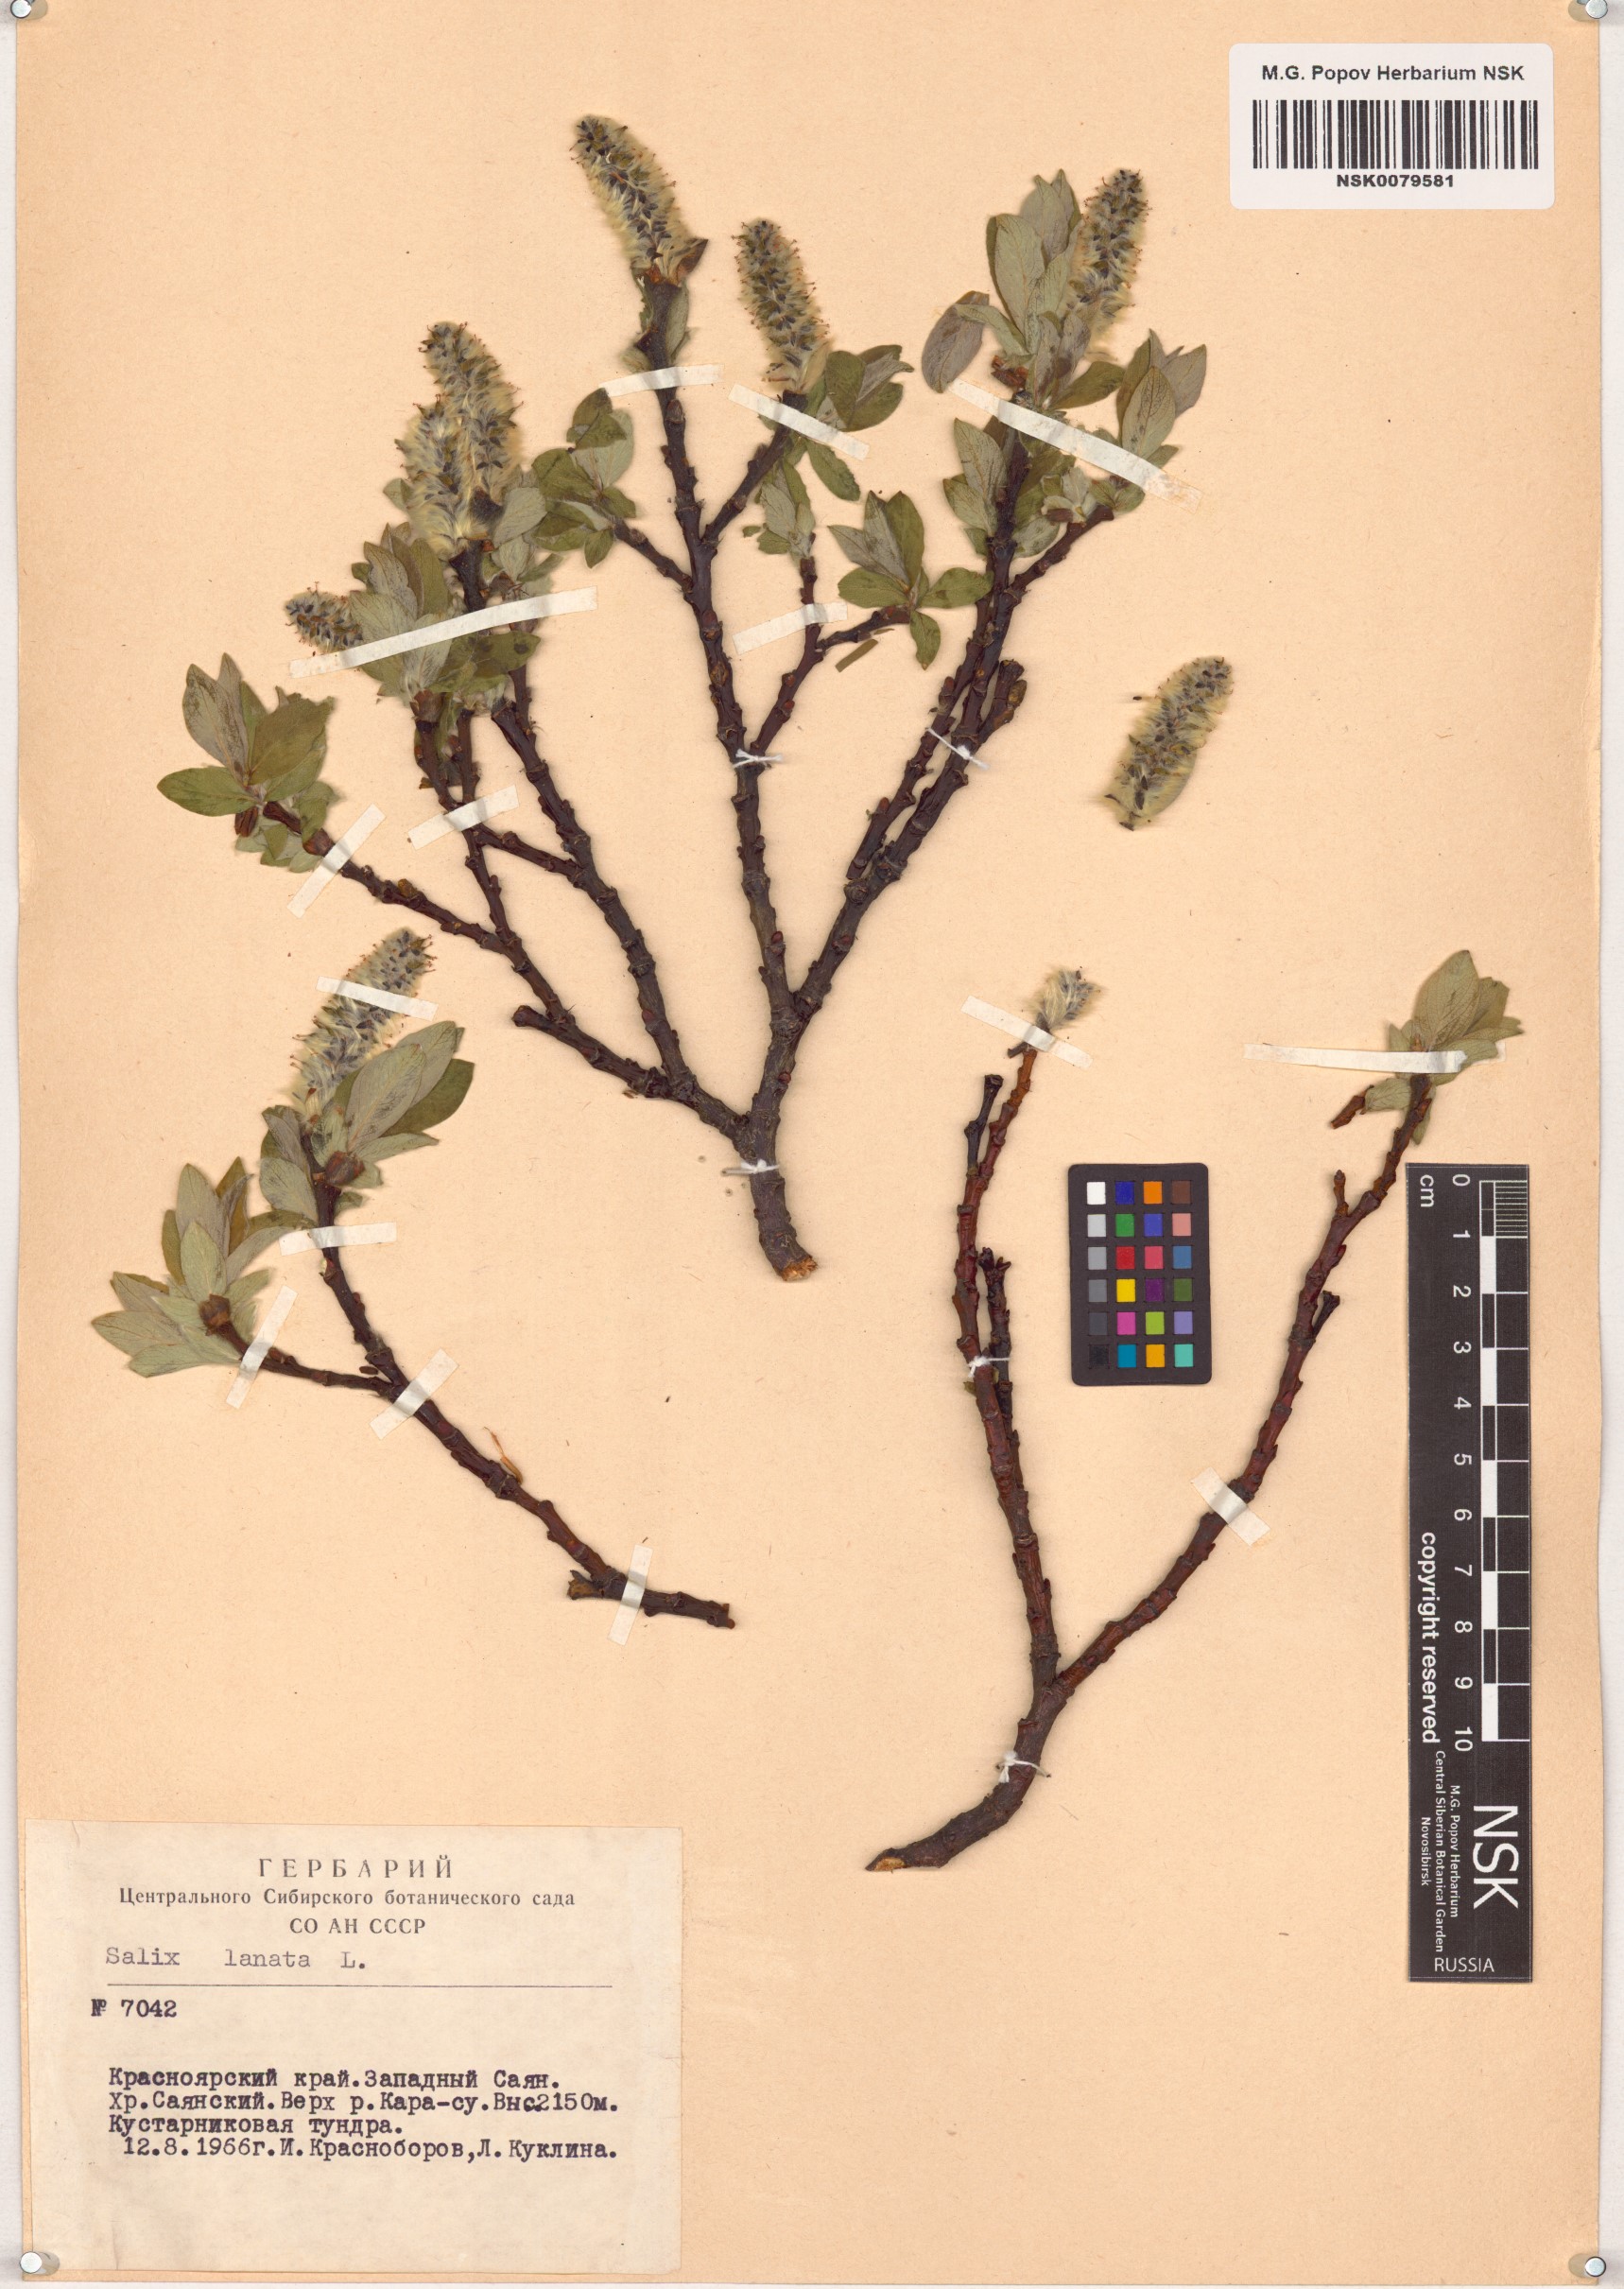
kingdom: Plantae
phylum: Tracheophyta
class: Magnoliopsida
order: Malpighiales
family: Salicaceae
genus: Salix
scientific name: Salix lanata
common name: Woolly willow
